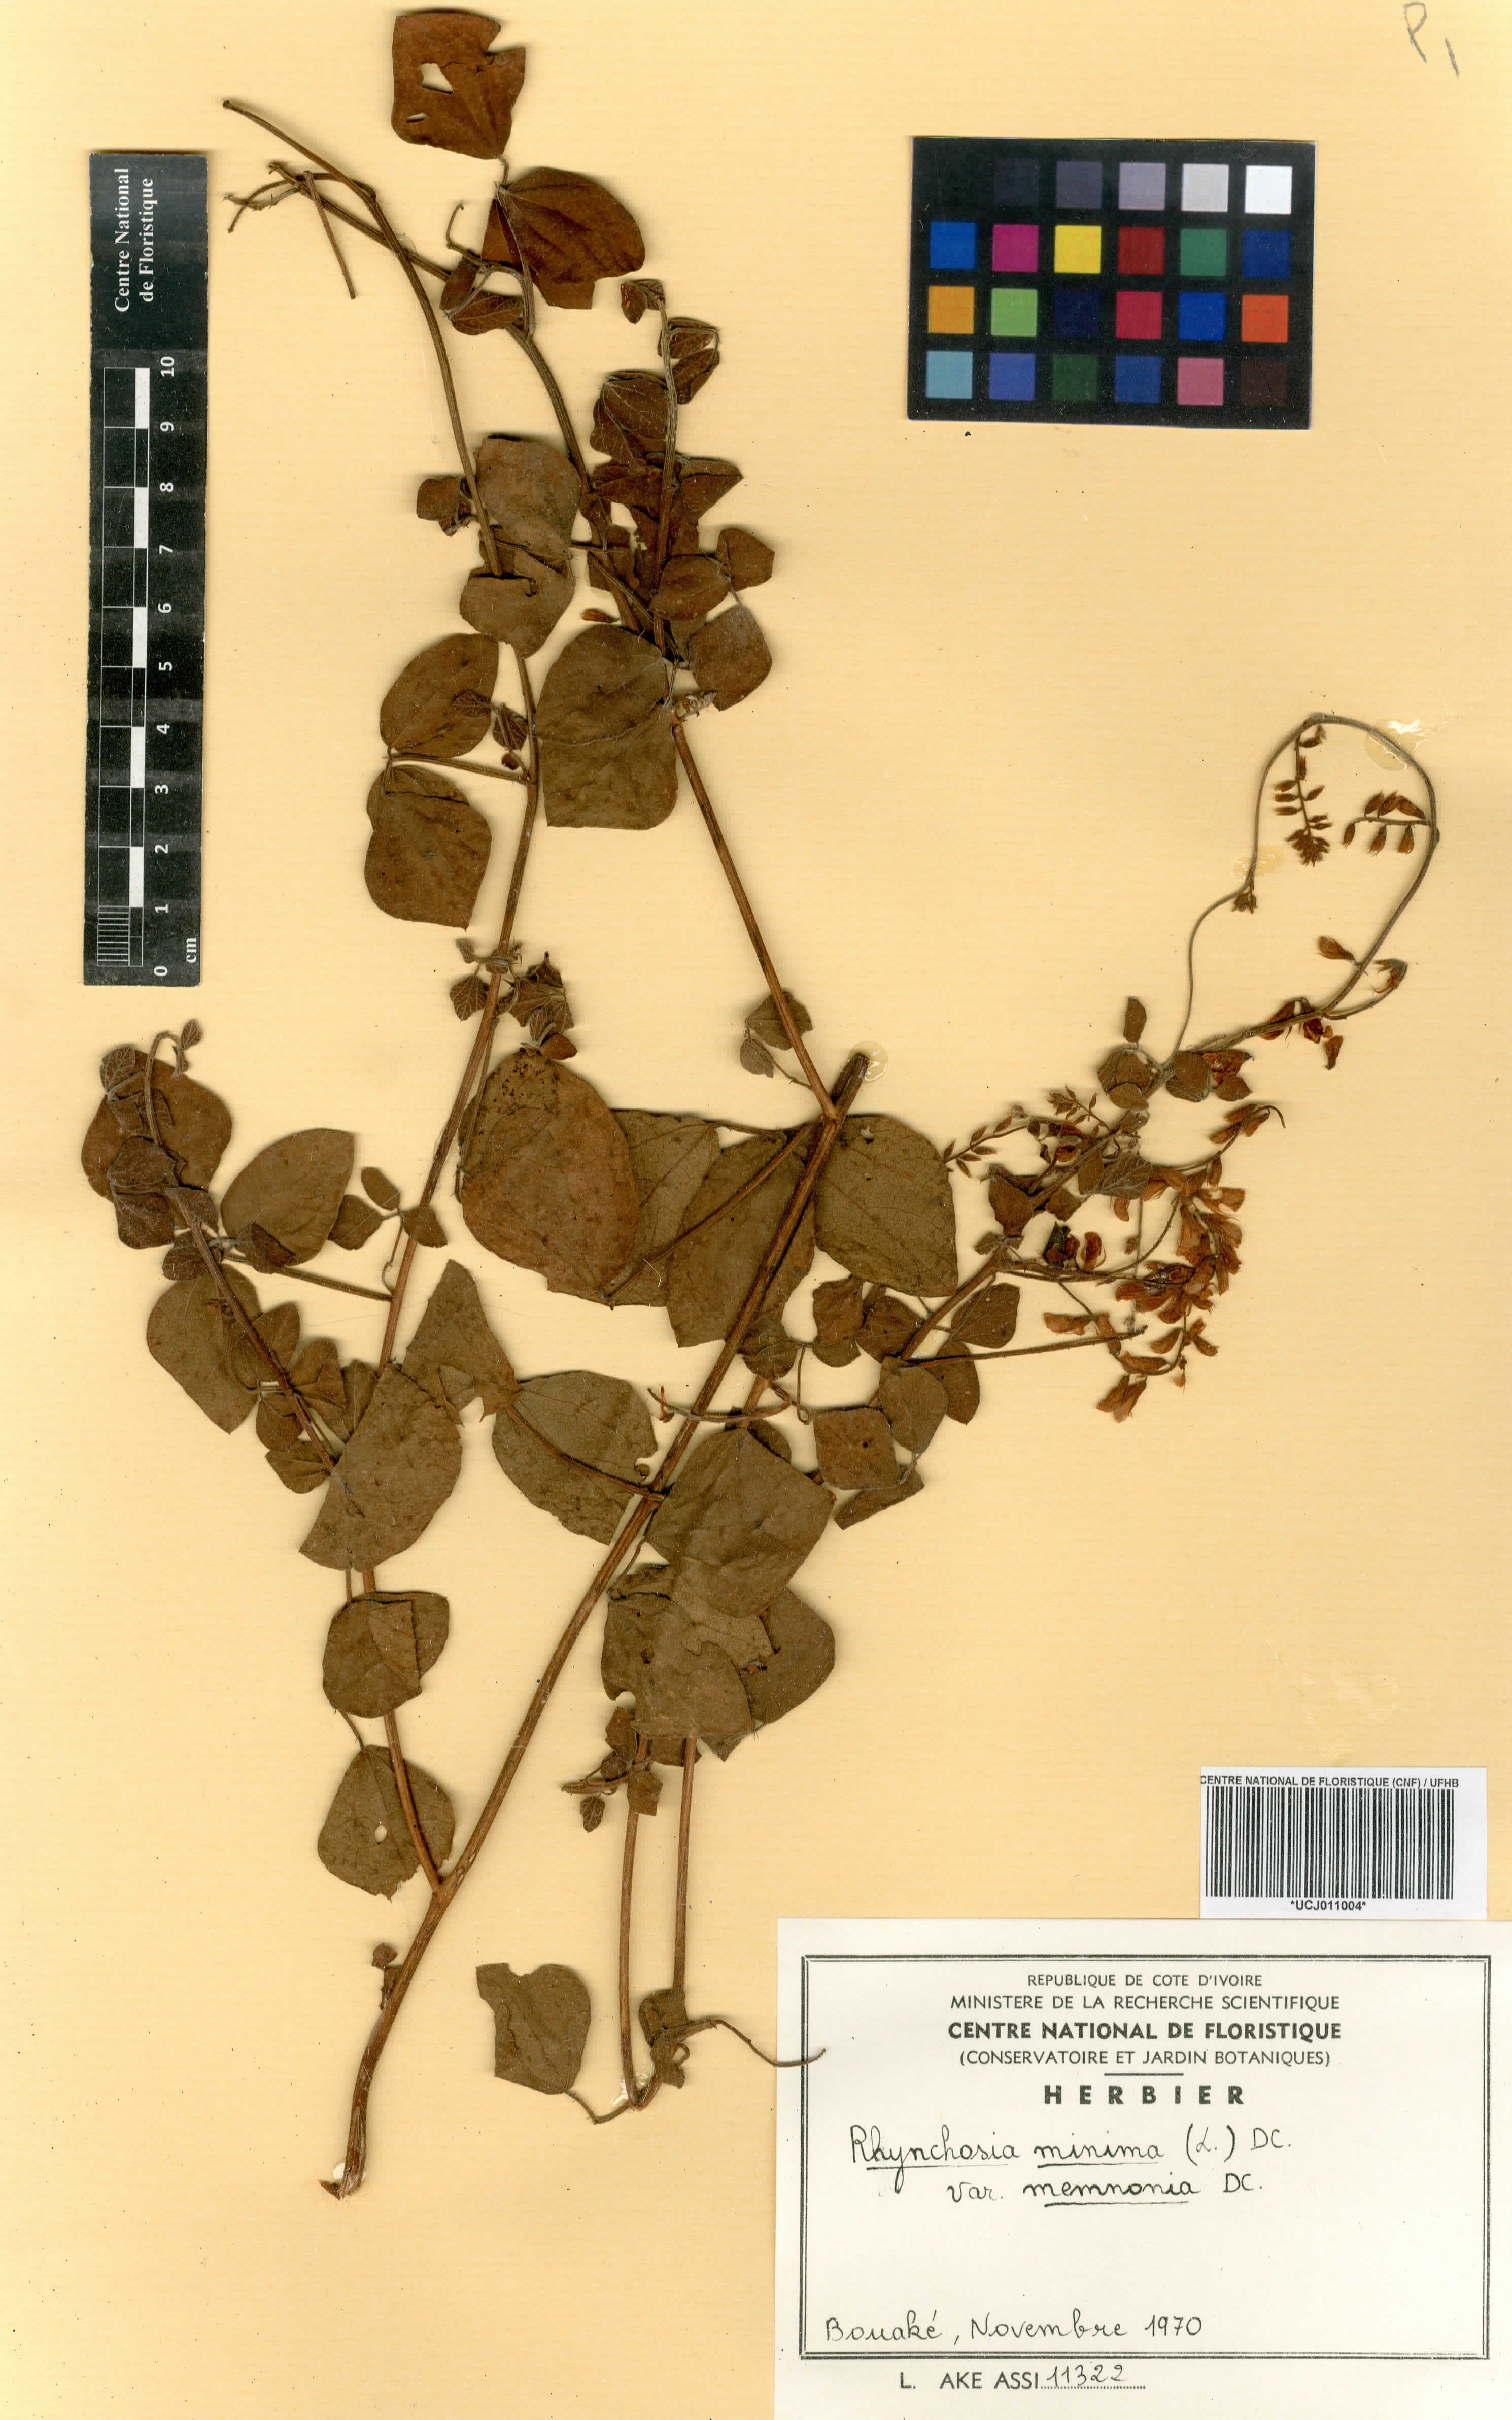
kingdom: Plantae
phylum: Tracheophyta
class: Magnoliopsida
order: Fabales
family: Fabaceae
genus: Rhynchosia
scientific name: Rhynchosia minima
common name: Least snoutbean
